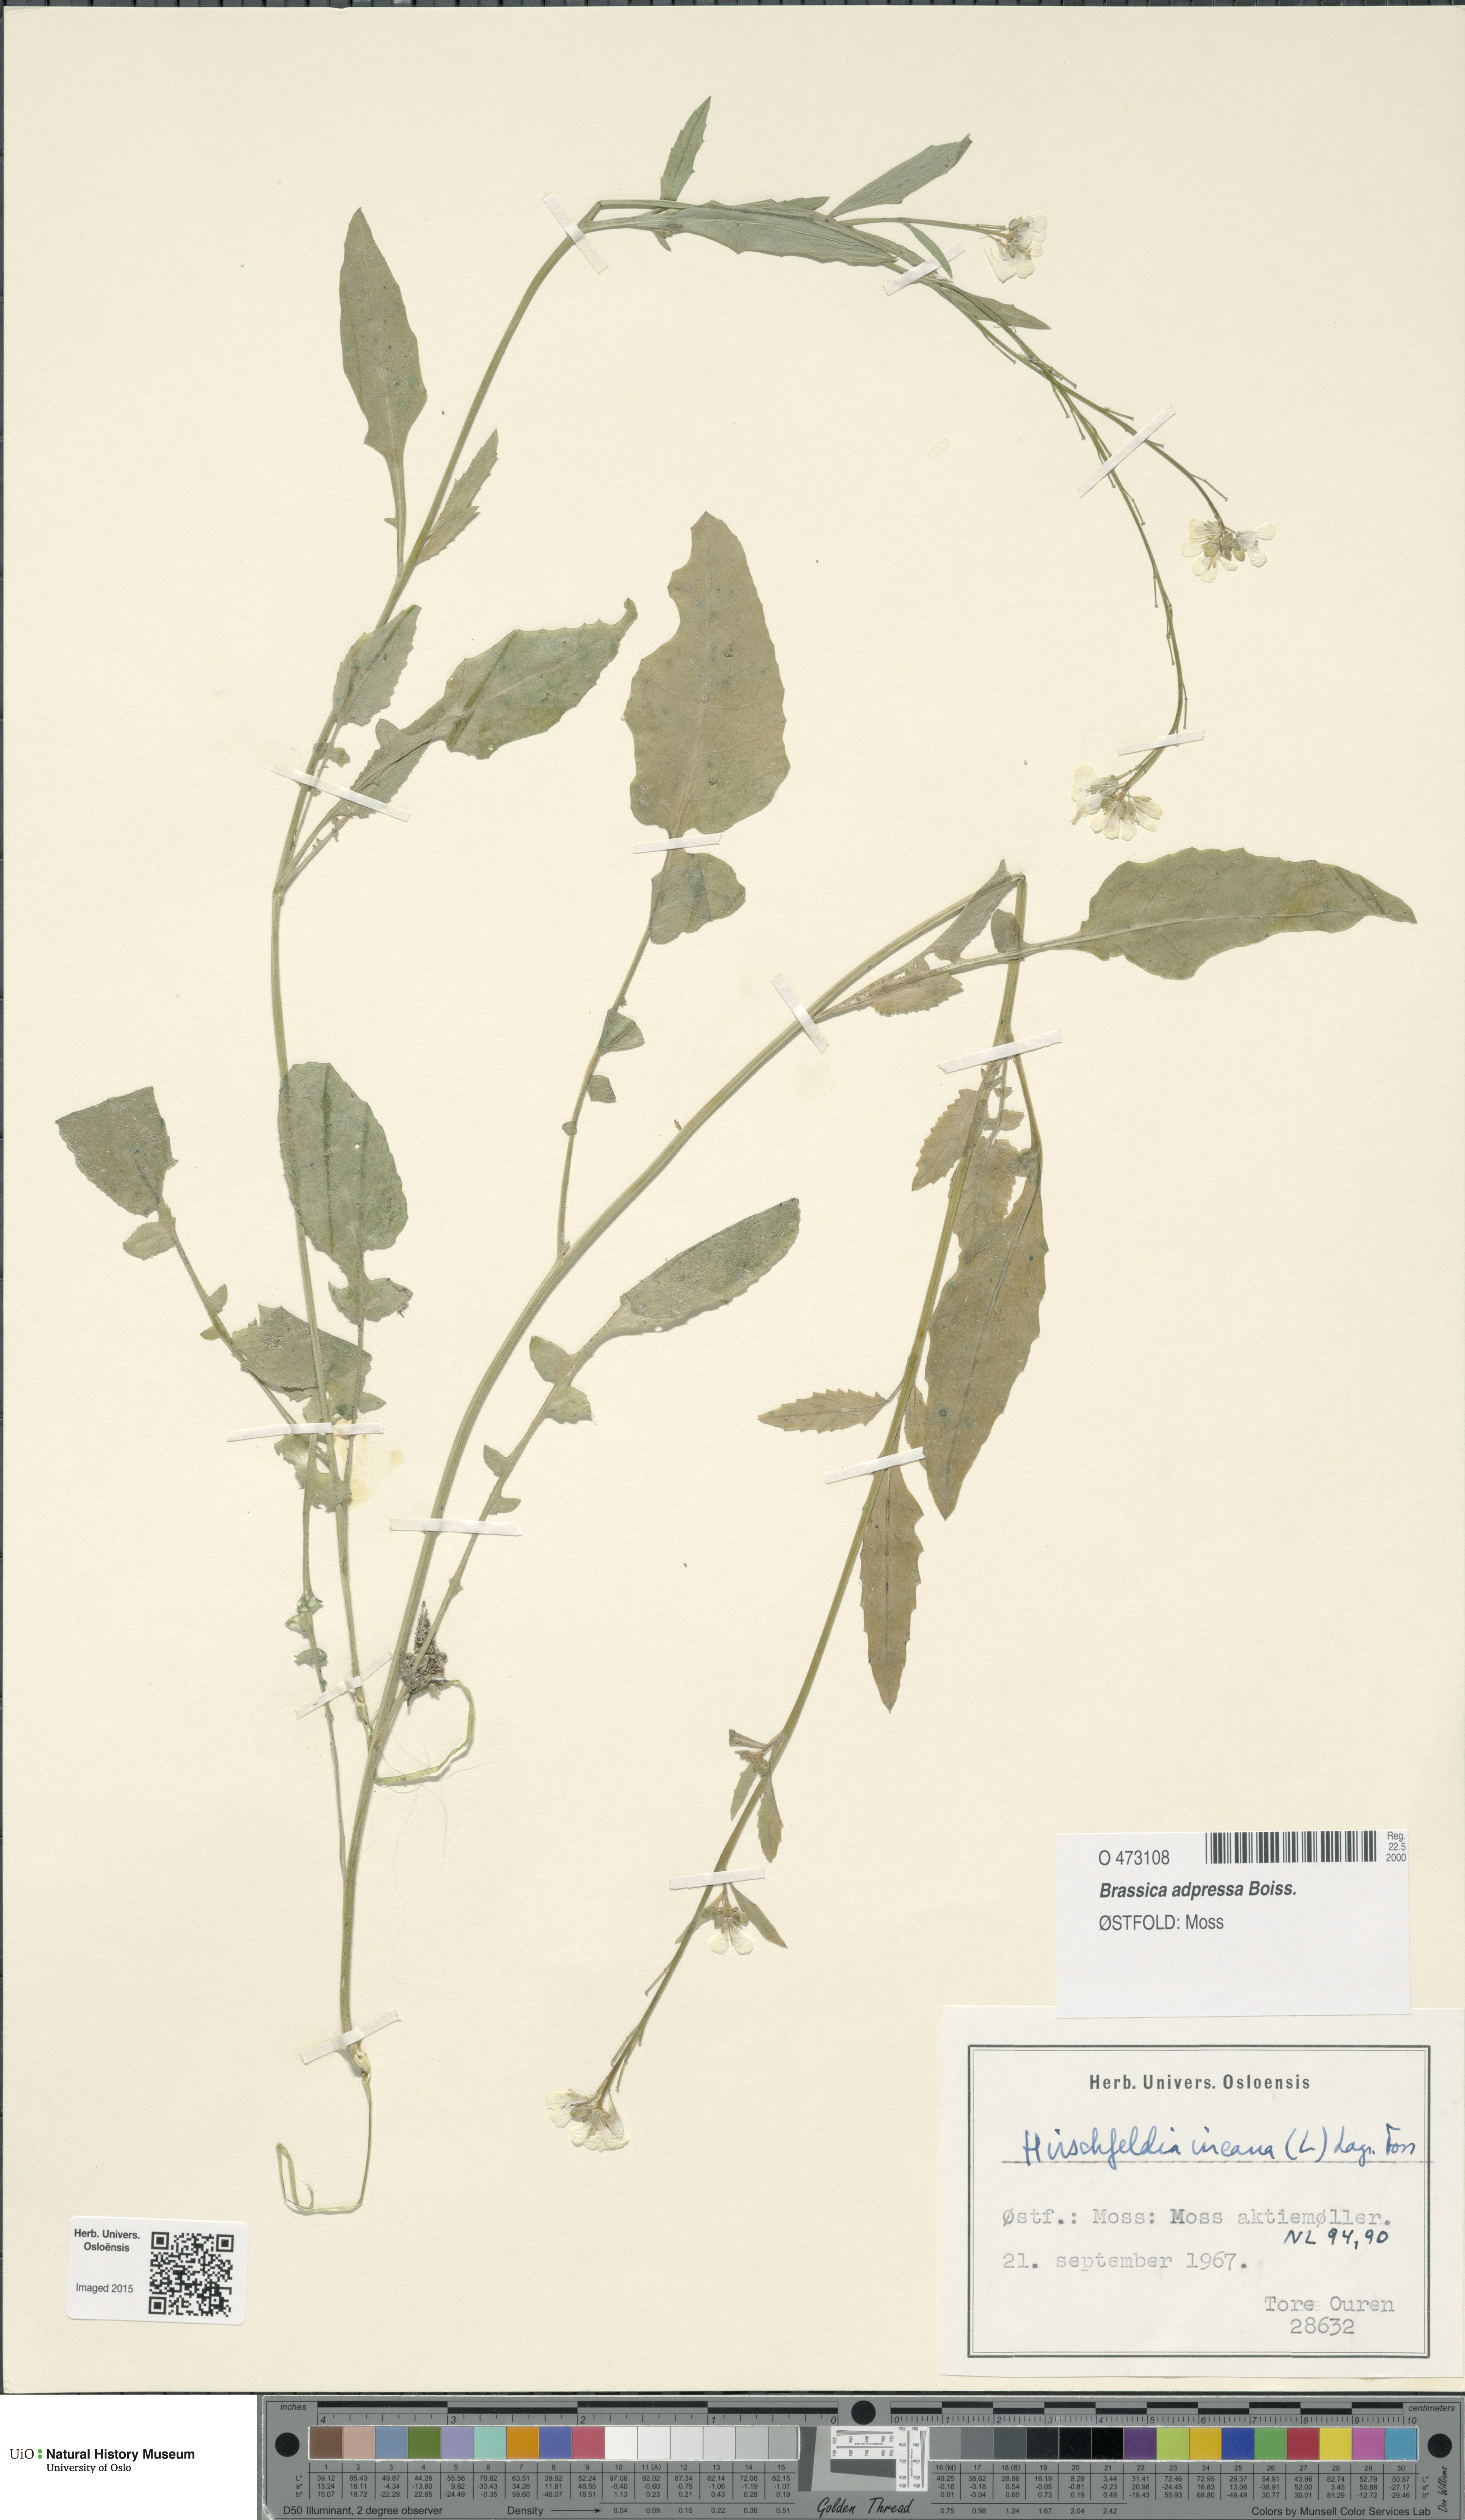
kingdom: Plantae
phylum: Tracheophyta
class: Magnoliopsida
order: Brassicales
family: Brassicaceae
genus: Hirschfeldia
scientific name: Hirschfeldia incana
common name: Hoary mustard
